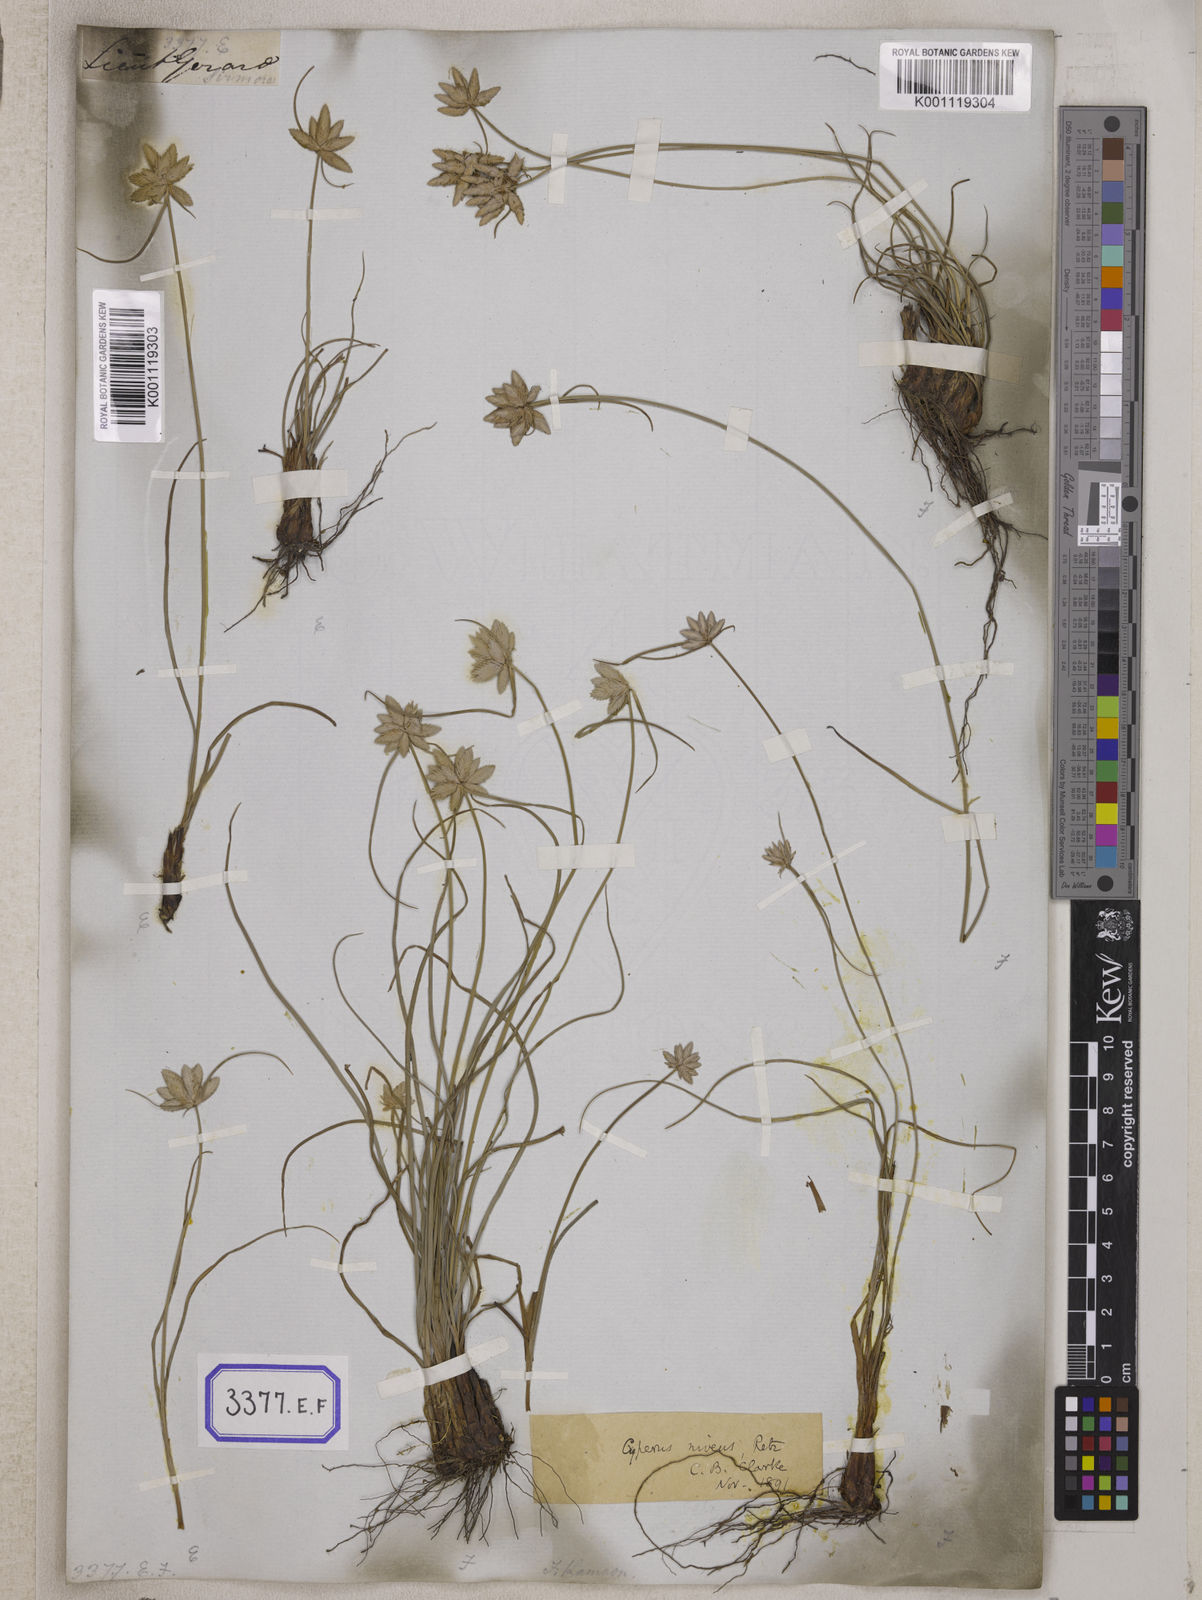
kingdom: Plantae
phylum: Tracheophyta
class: Liliopsida
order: Poales
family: Cyperaceae
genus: Cyperus
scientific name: Cyperus
